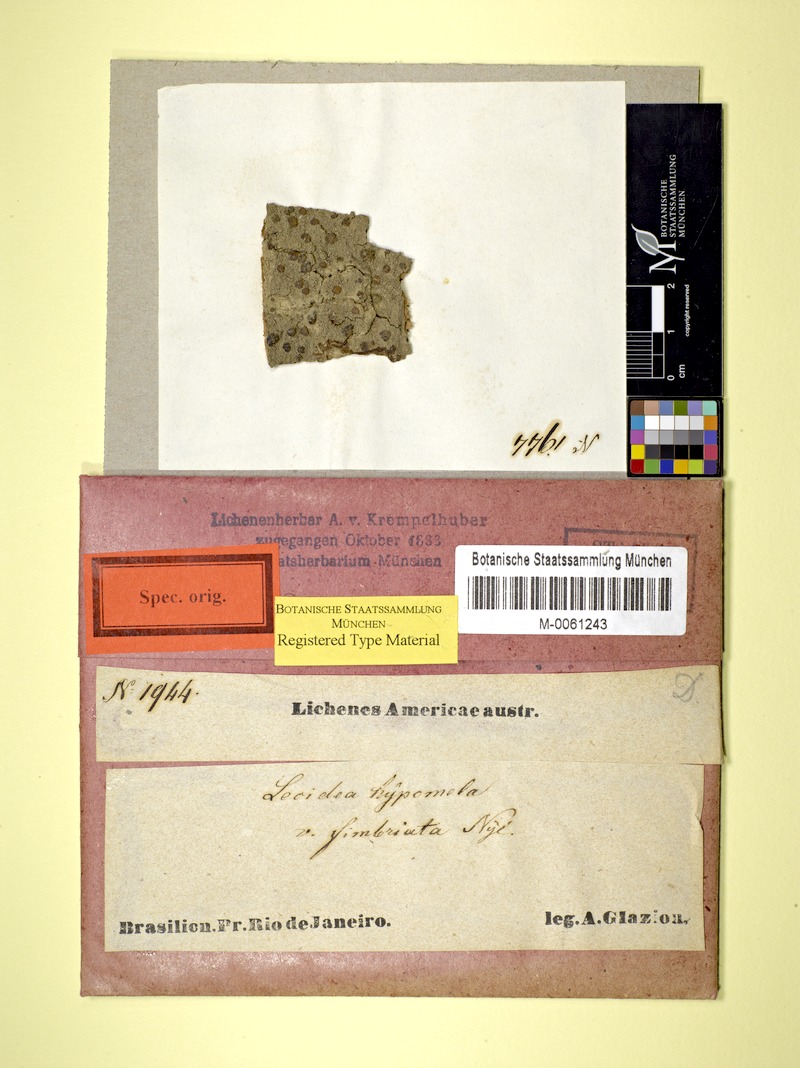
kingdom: Fungi
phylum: Ascomycota
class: Lecanoromycetes
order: Lecideales
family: Lecideaceae
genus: Lecidea
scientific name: Lecidea hypomela
